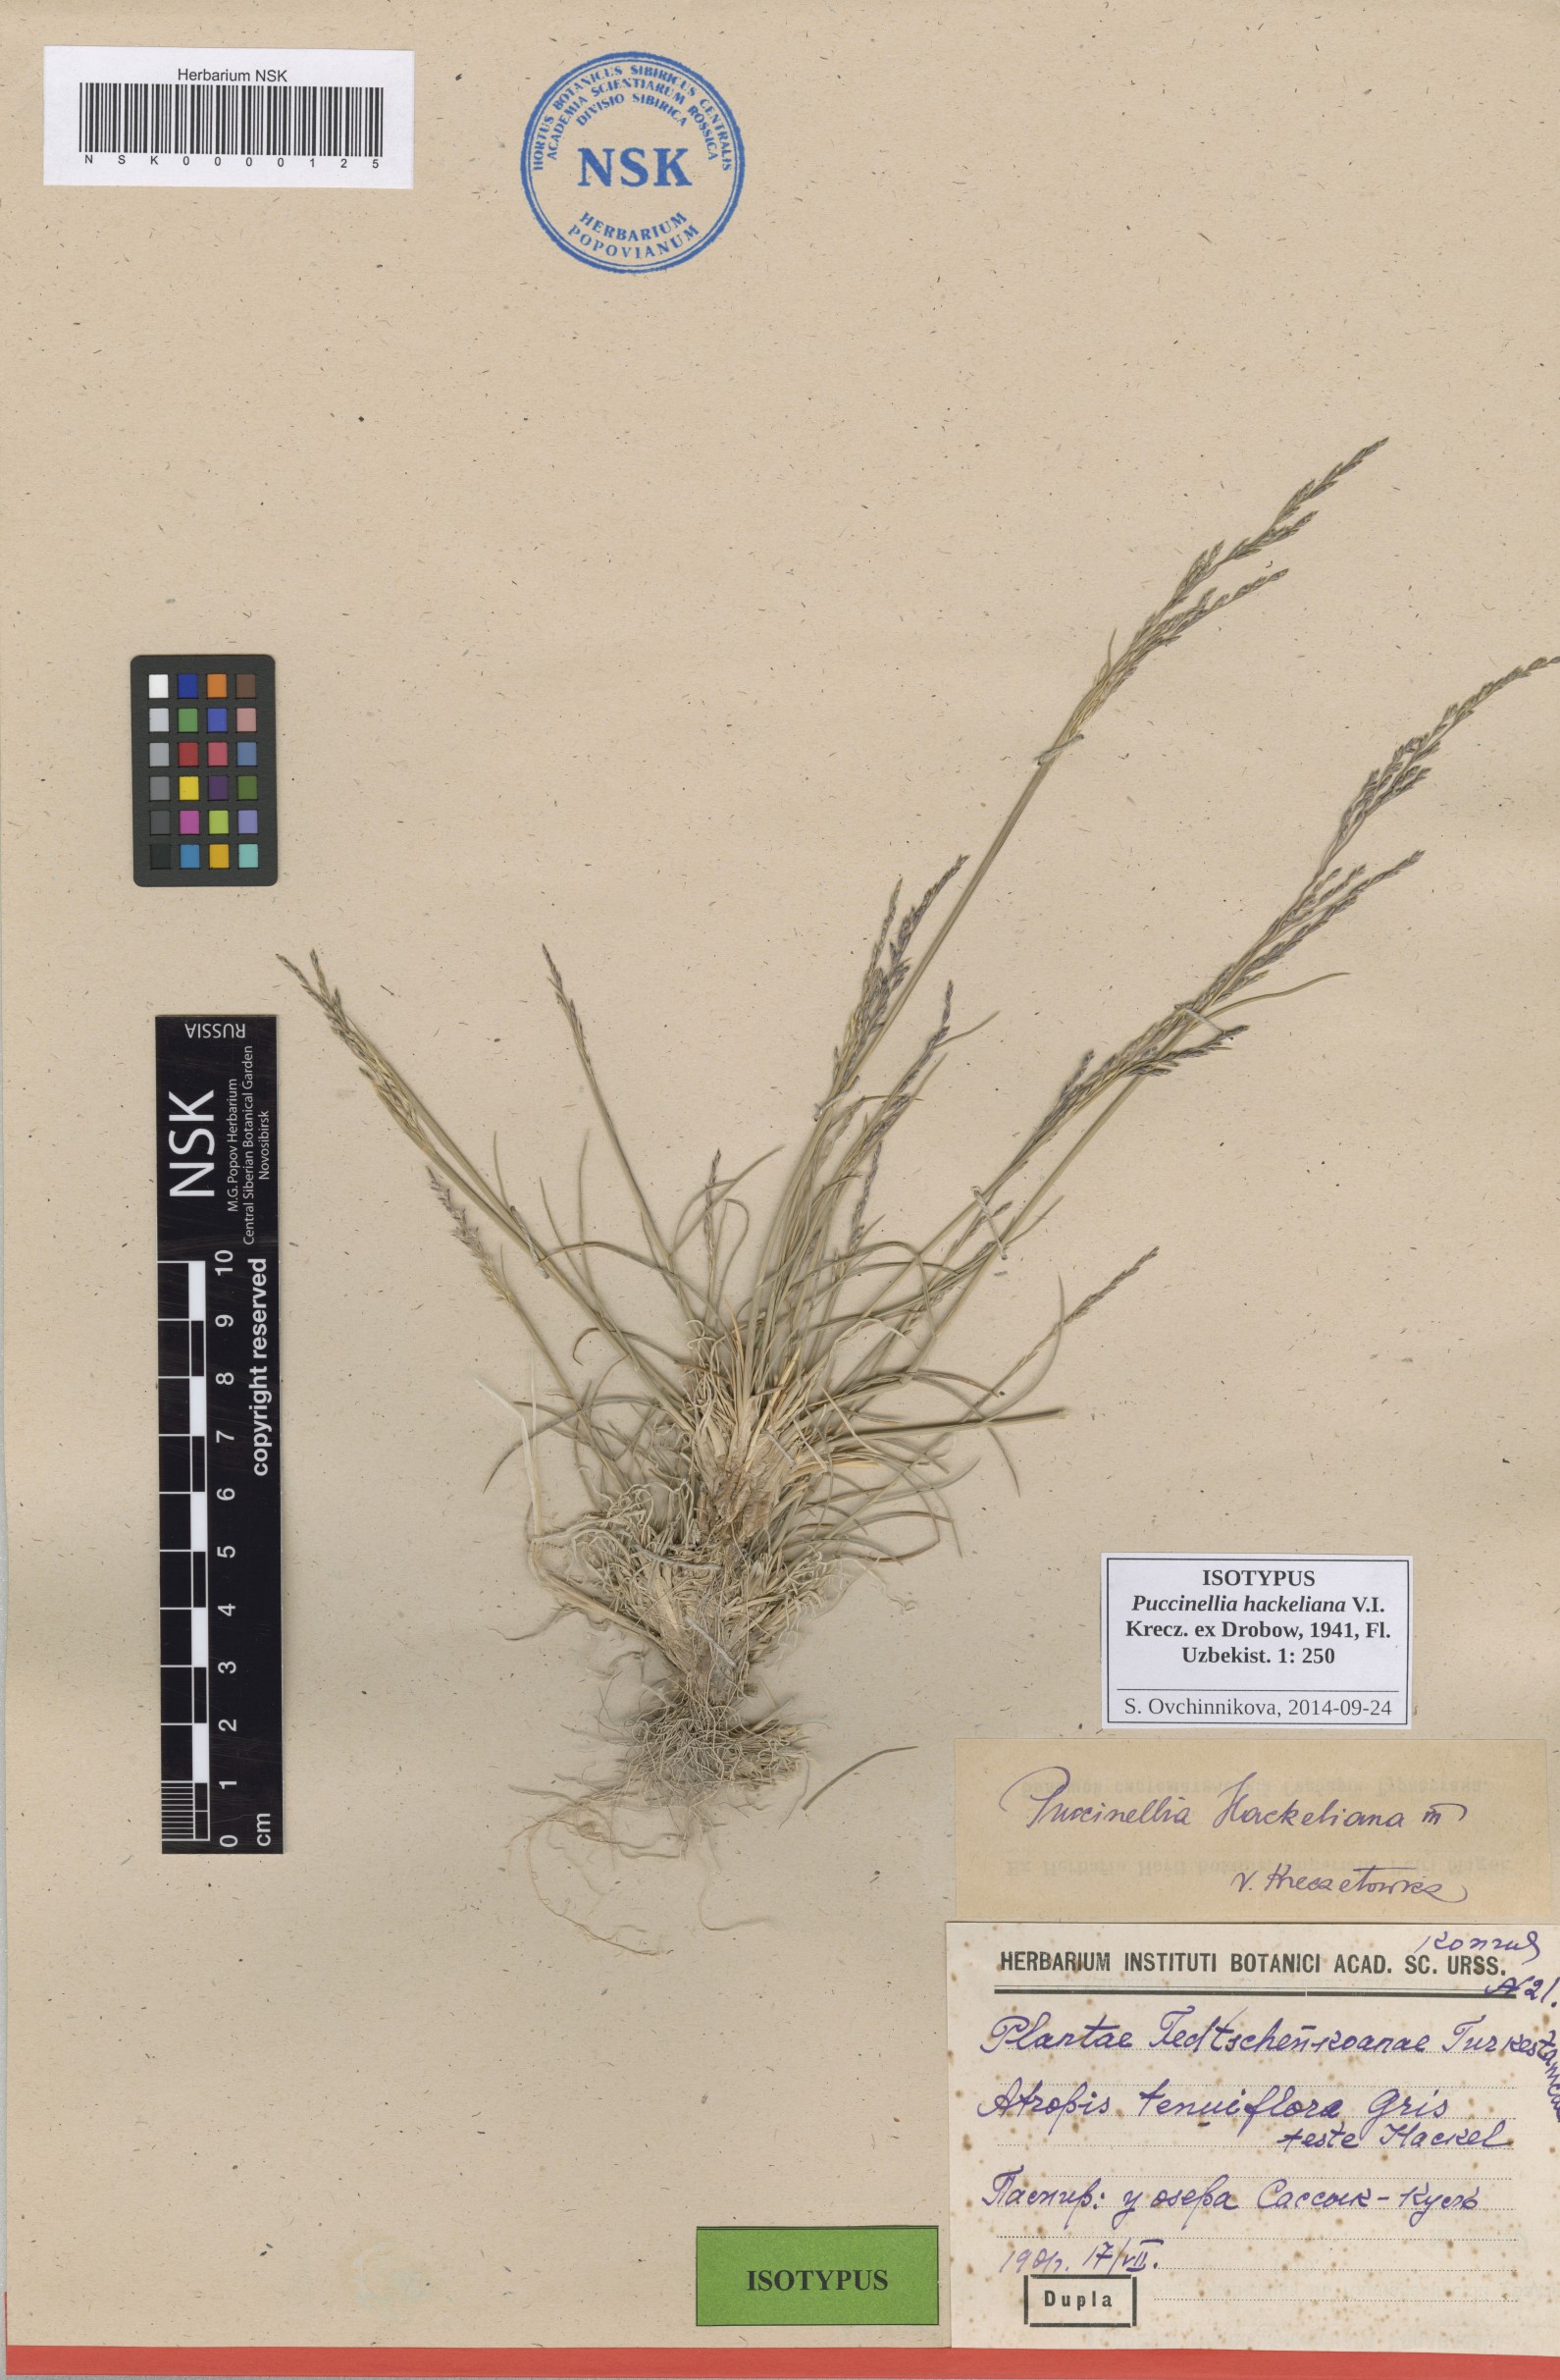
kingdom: Plantae
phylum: Tracheophyta
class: Liliopsida
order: Poales
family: Poaceae
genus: Puccinellia
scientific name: Puccinellia hackeliana
